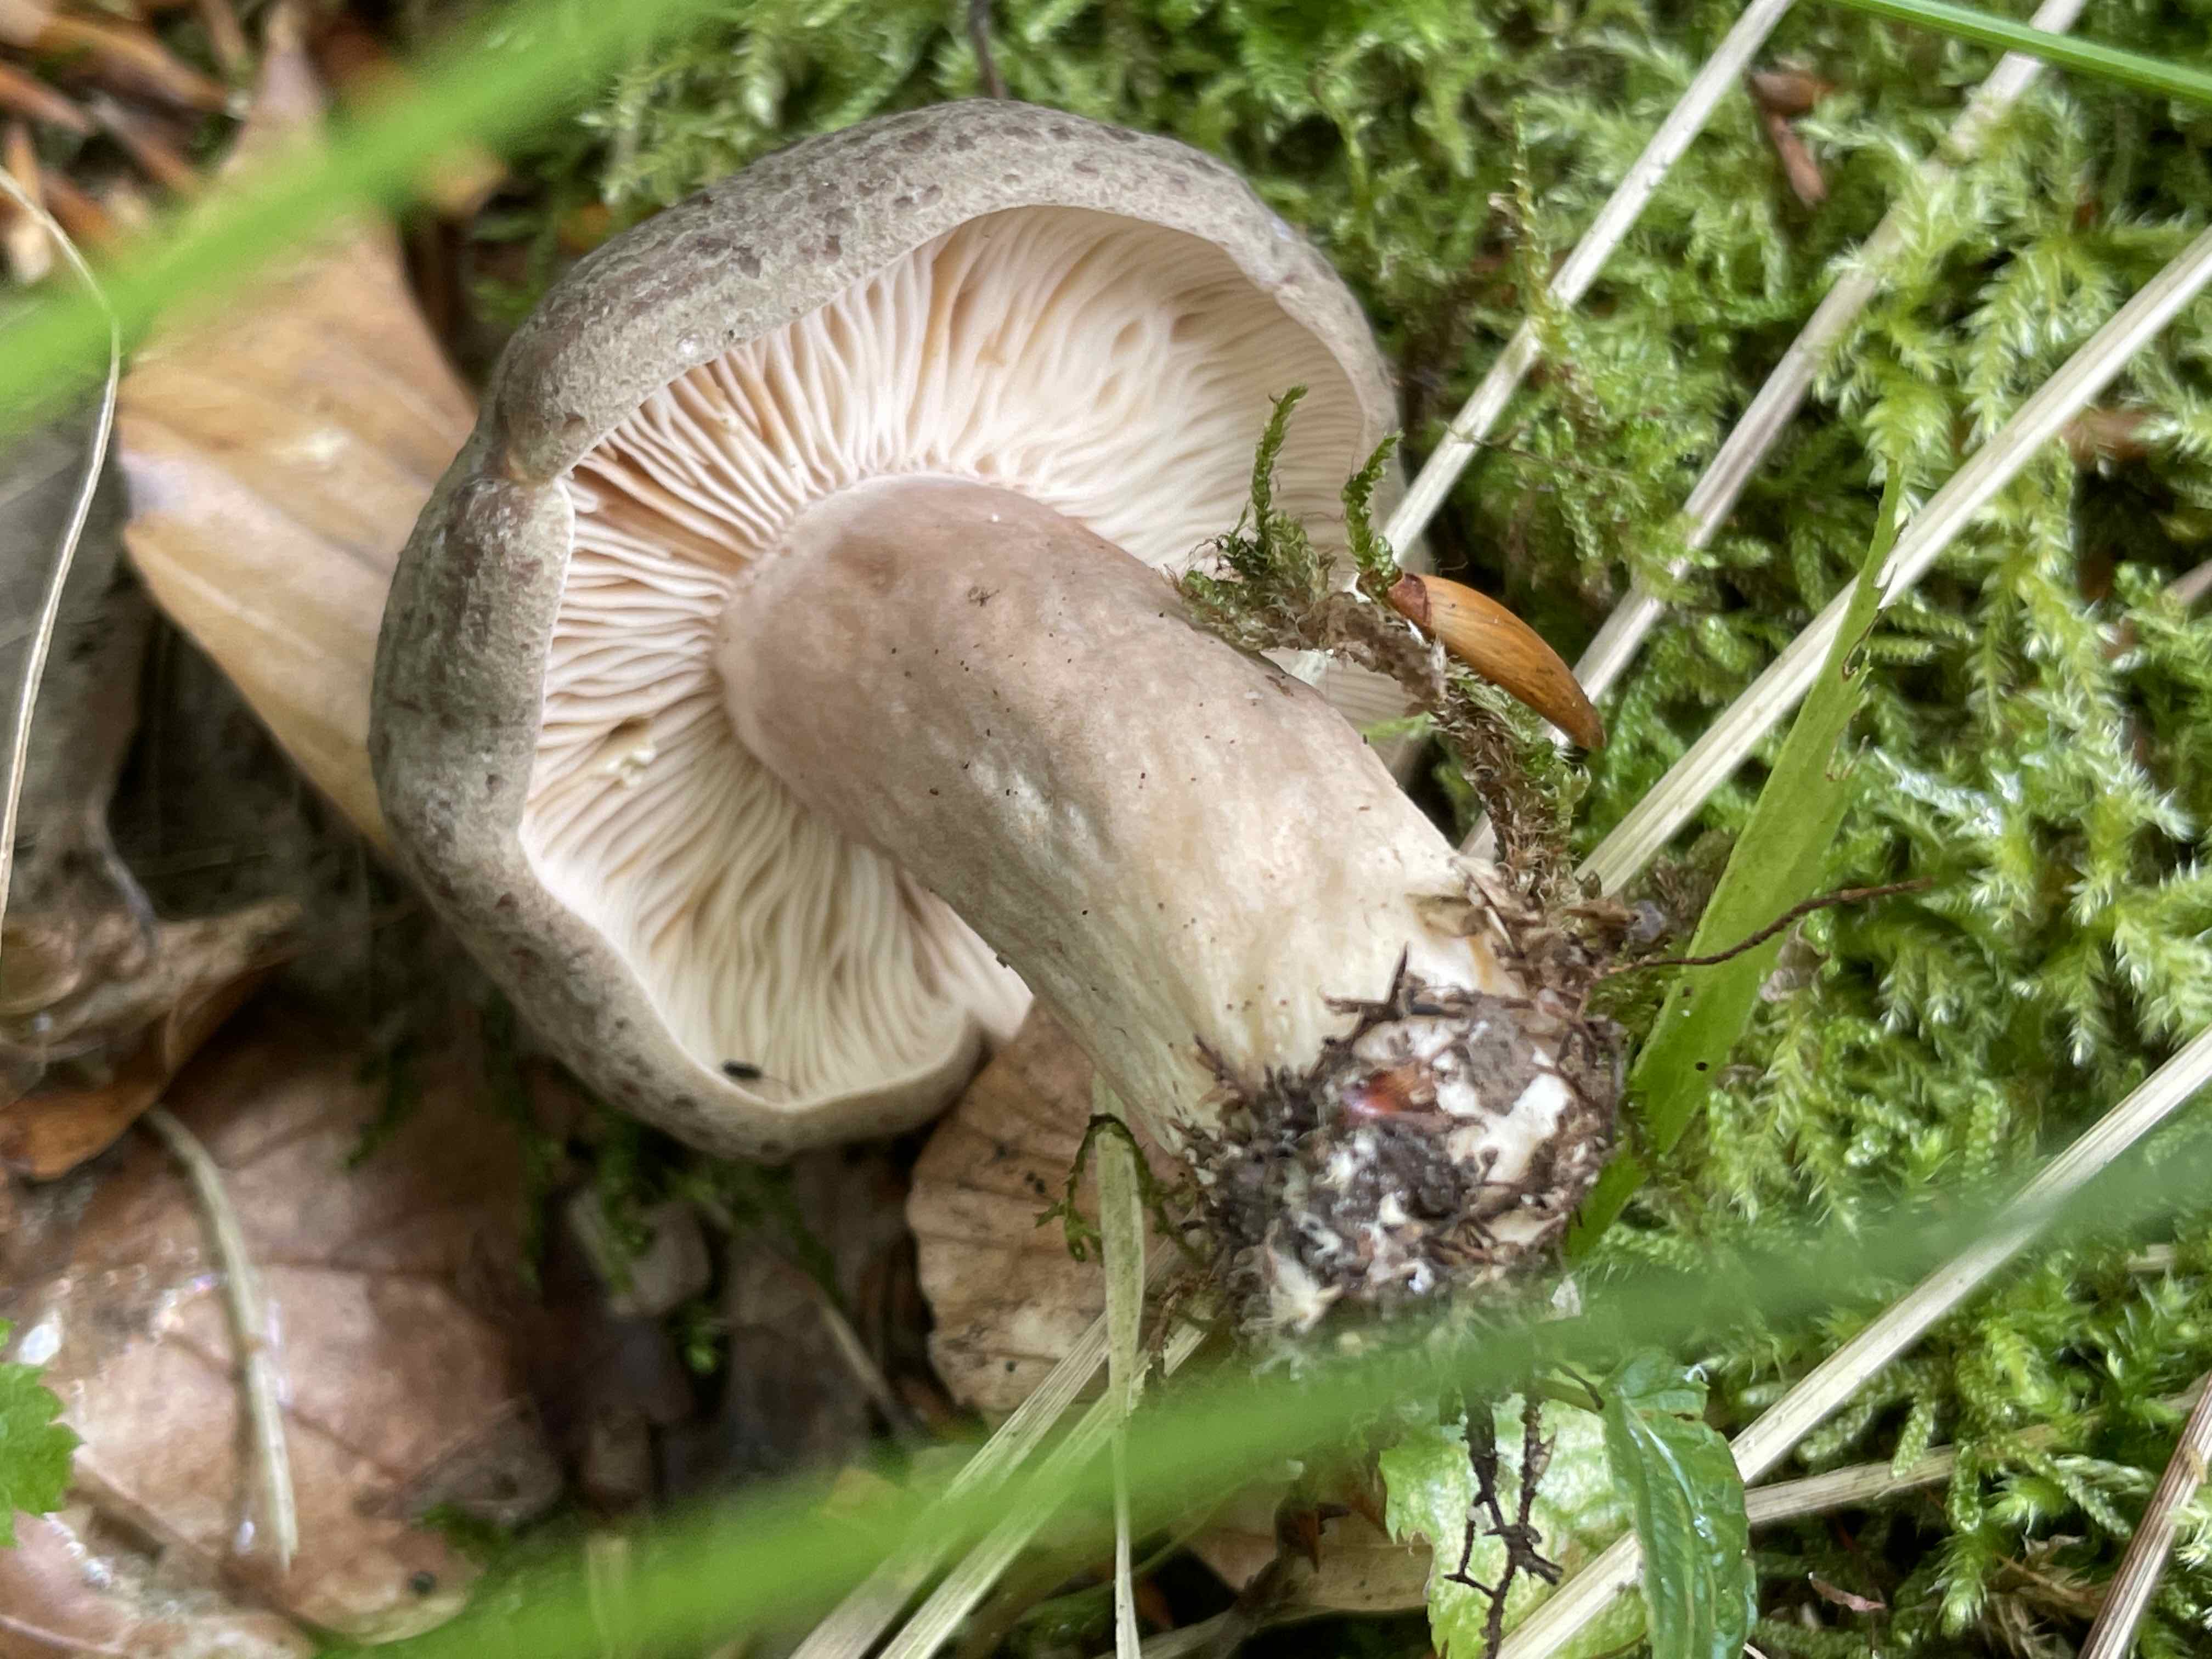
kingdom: Fungi
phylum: Basidiomycota
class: Agaricomycetes
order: Russulales
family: Russulaceae
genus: Lactarius
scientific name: Lactarius circellatus
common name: avnbøg-mælkehat
